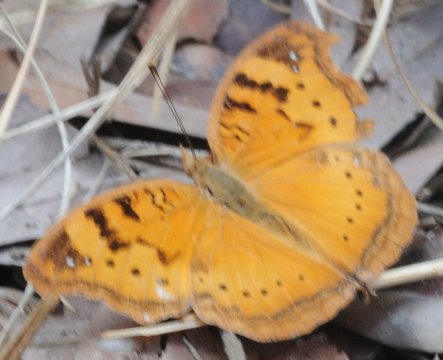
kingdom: Animalia
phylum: Arthropoda
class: Insecta
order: Lepidoptera
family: Nymphalidae
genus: Junonia
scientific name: Junonia cuama
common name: Paler Commodore
